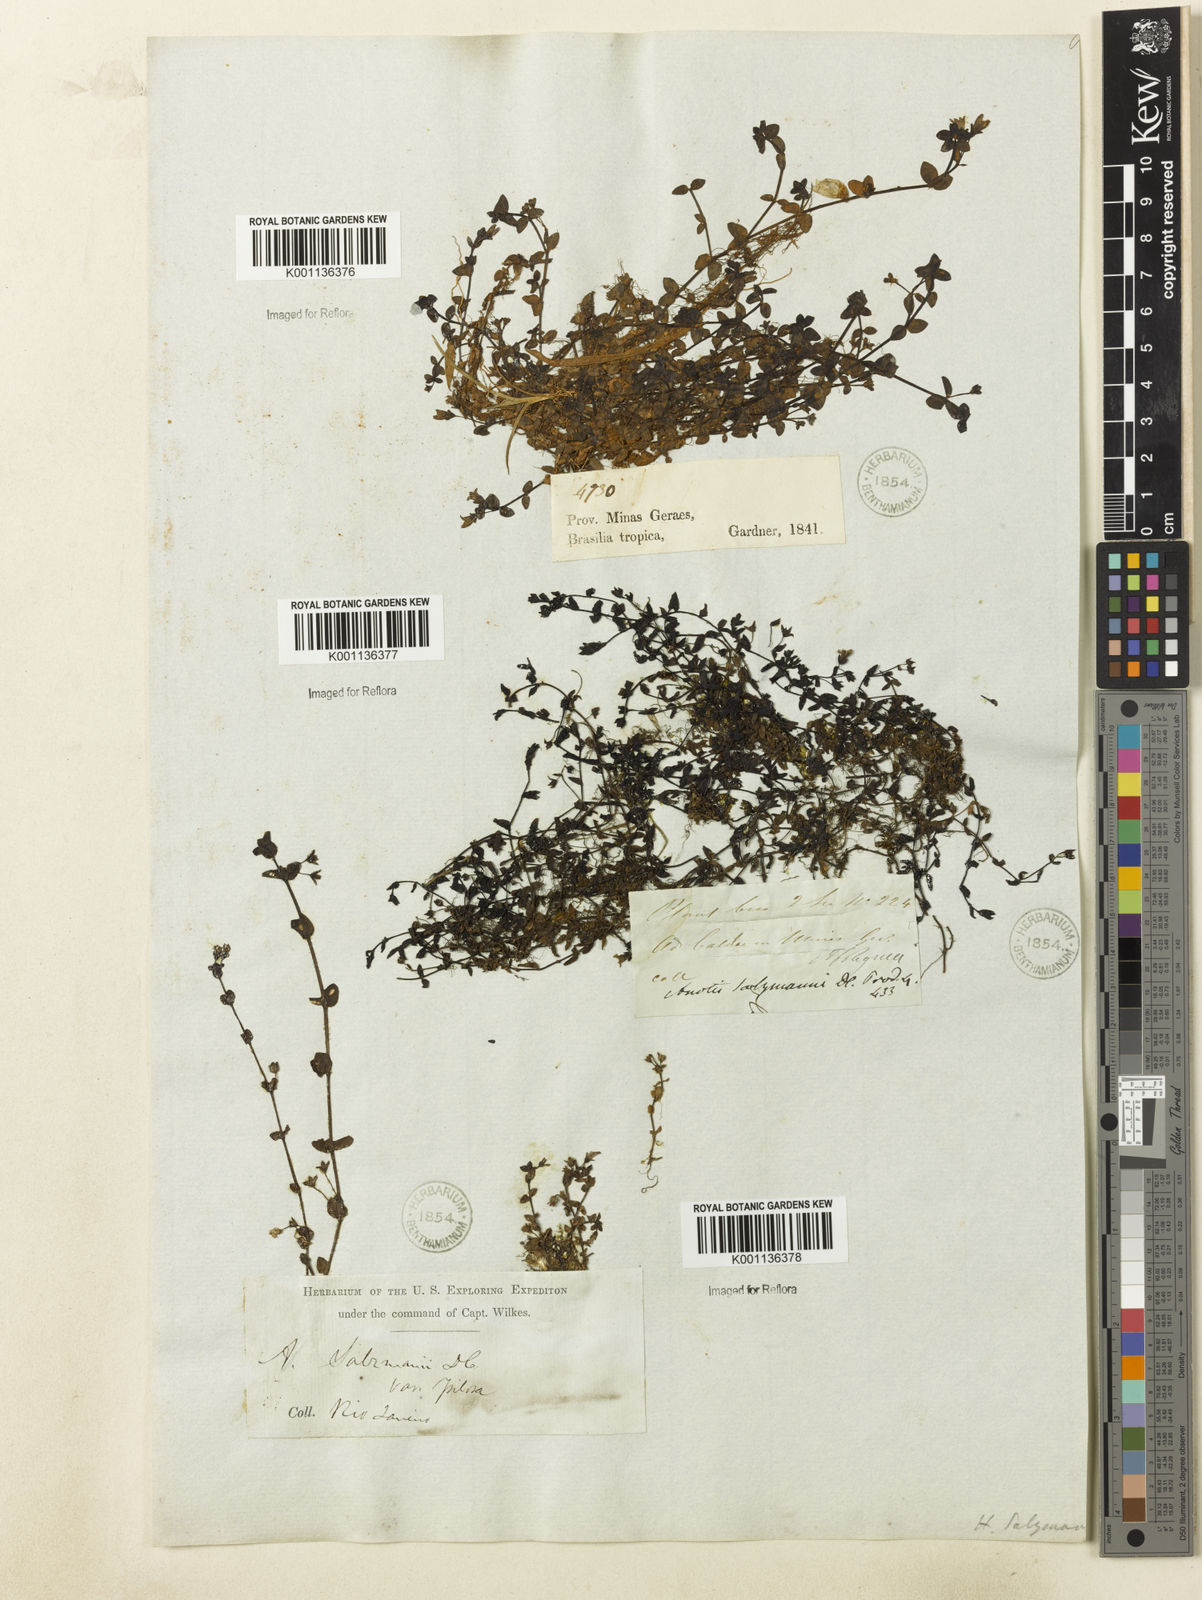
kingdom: Plantae
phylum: Tracheophyta
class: Magnoliopsida
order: Gentianales
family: Rubiaceae
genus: Oldenlandia
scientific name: Oldenlandia salzmannii
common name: Salzmann's mille graines
